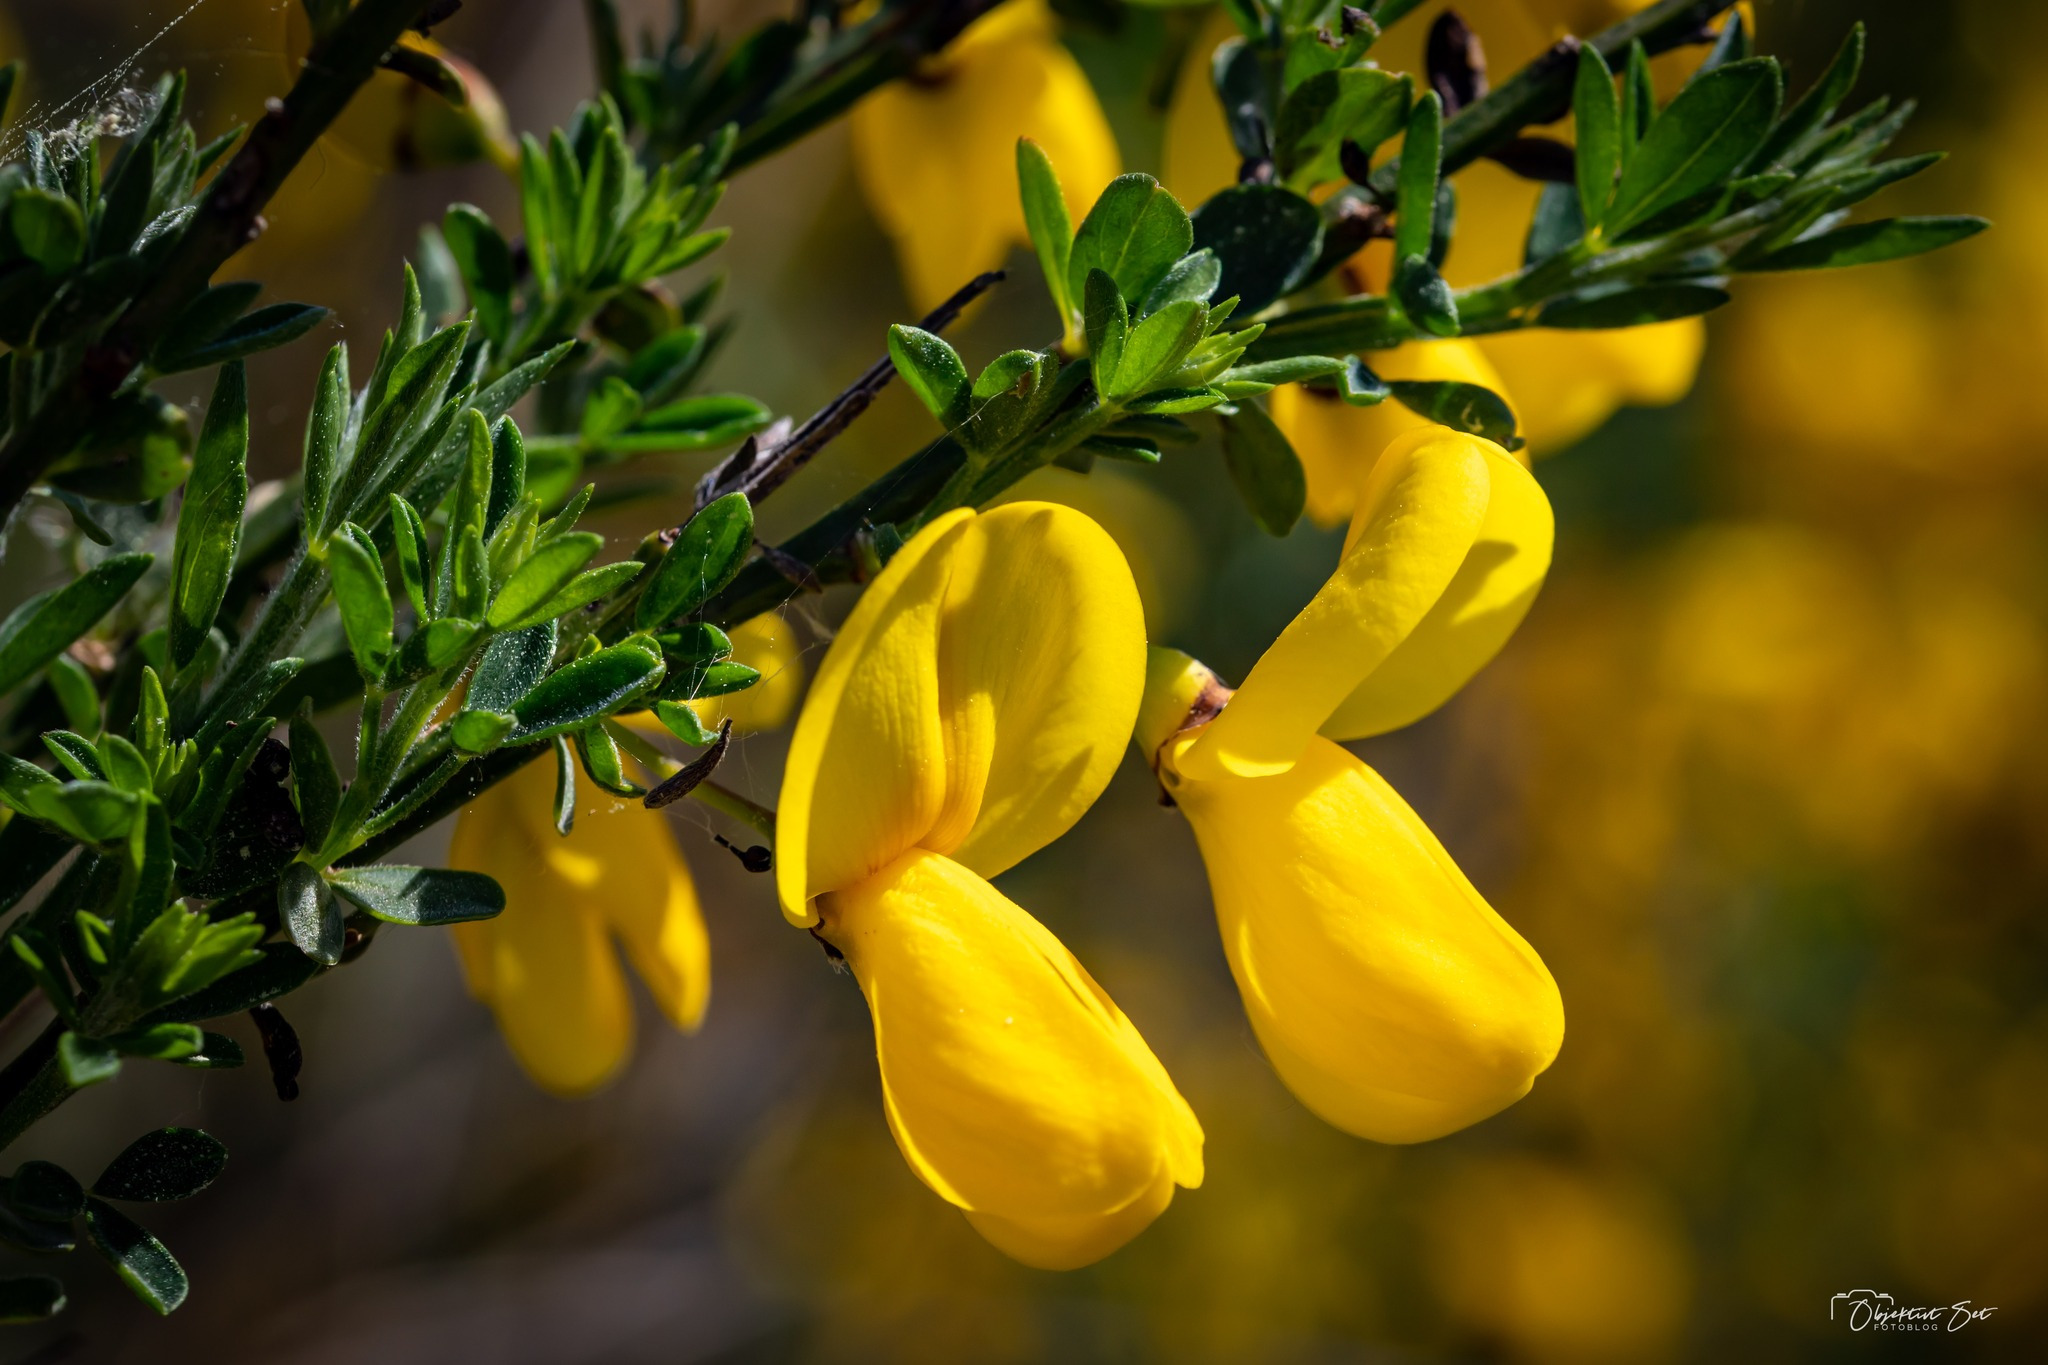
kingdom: Plantae
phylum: Tracheophyta
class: Magnoliopsida
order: Fabales
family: Fabaceae
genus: Cytisus
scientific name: Cytisus scoparius
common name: Almindelig gyvel
